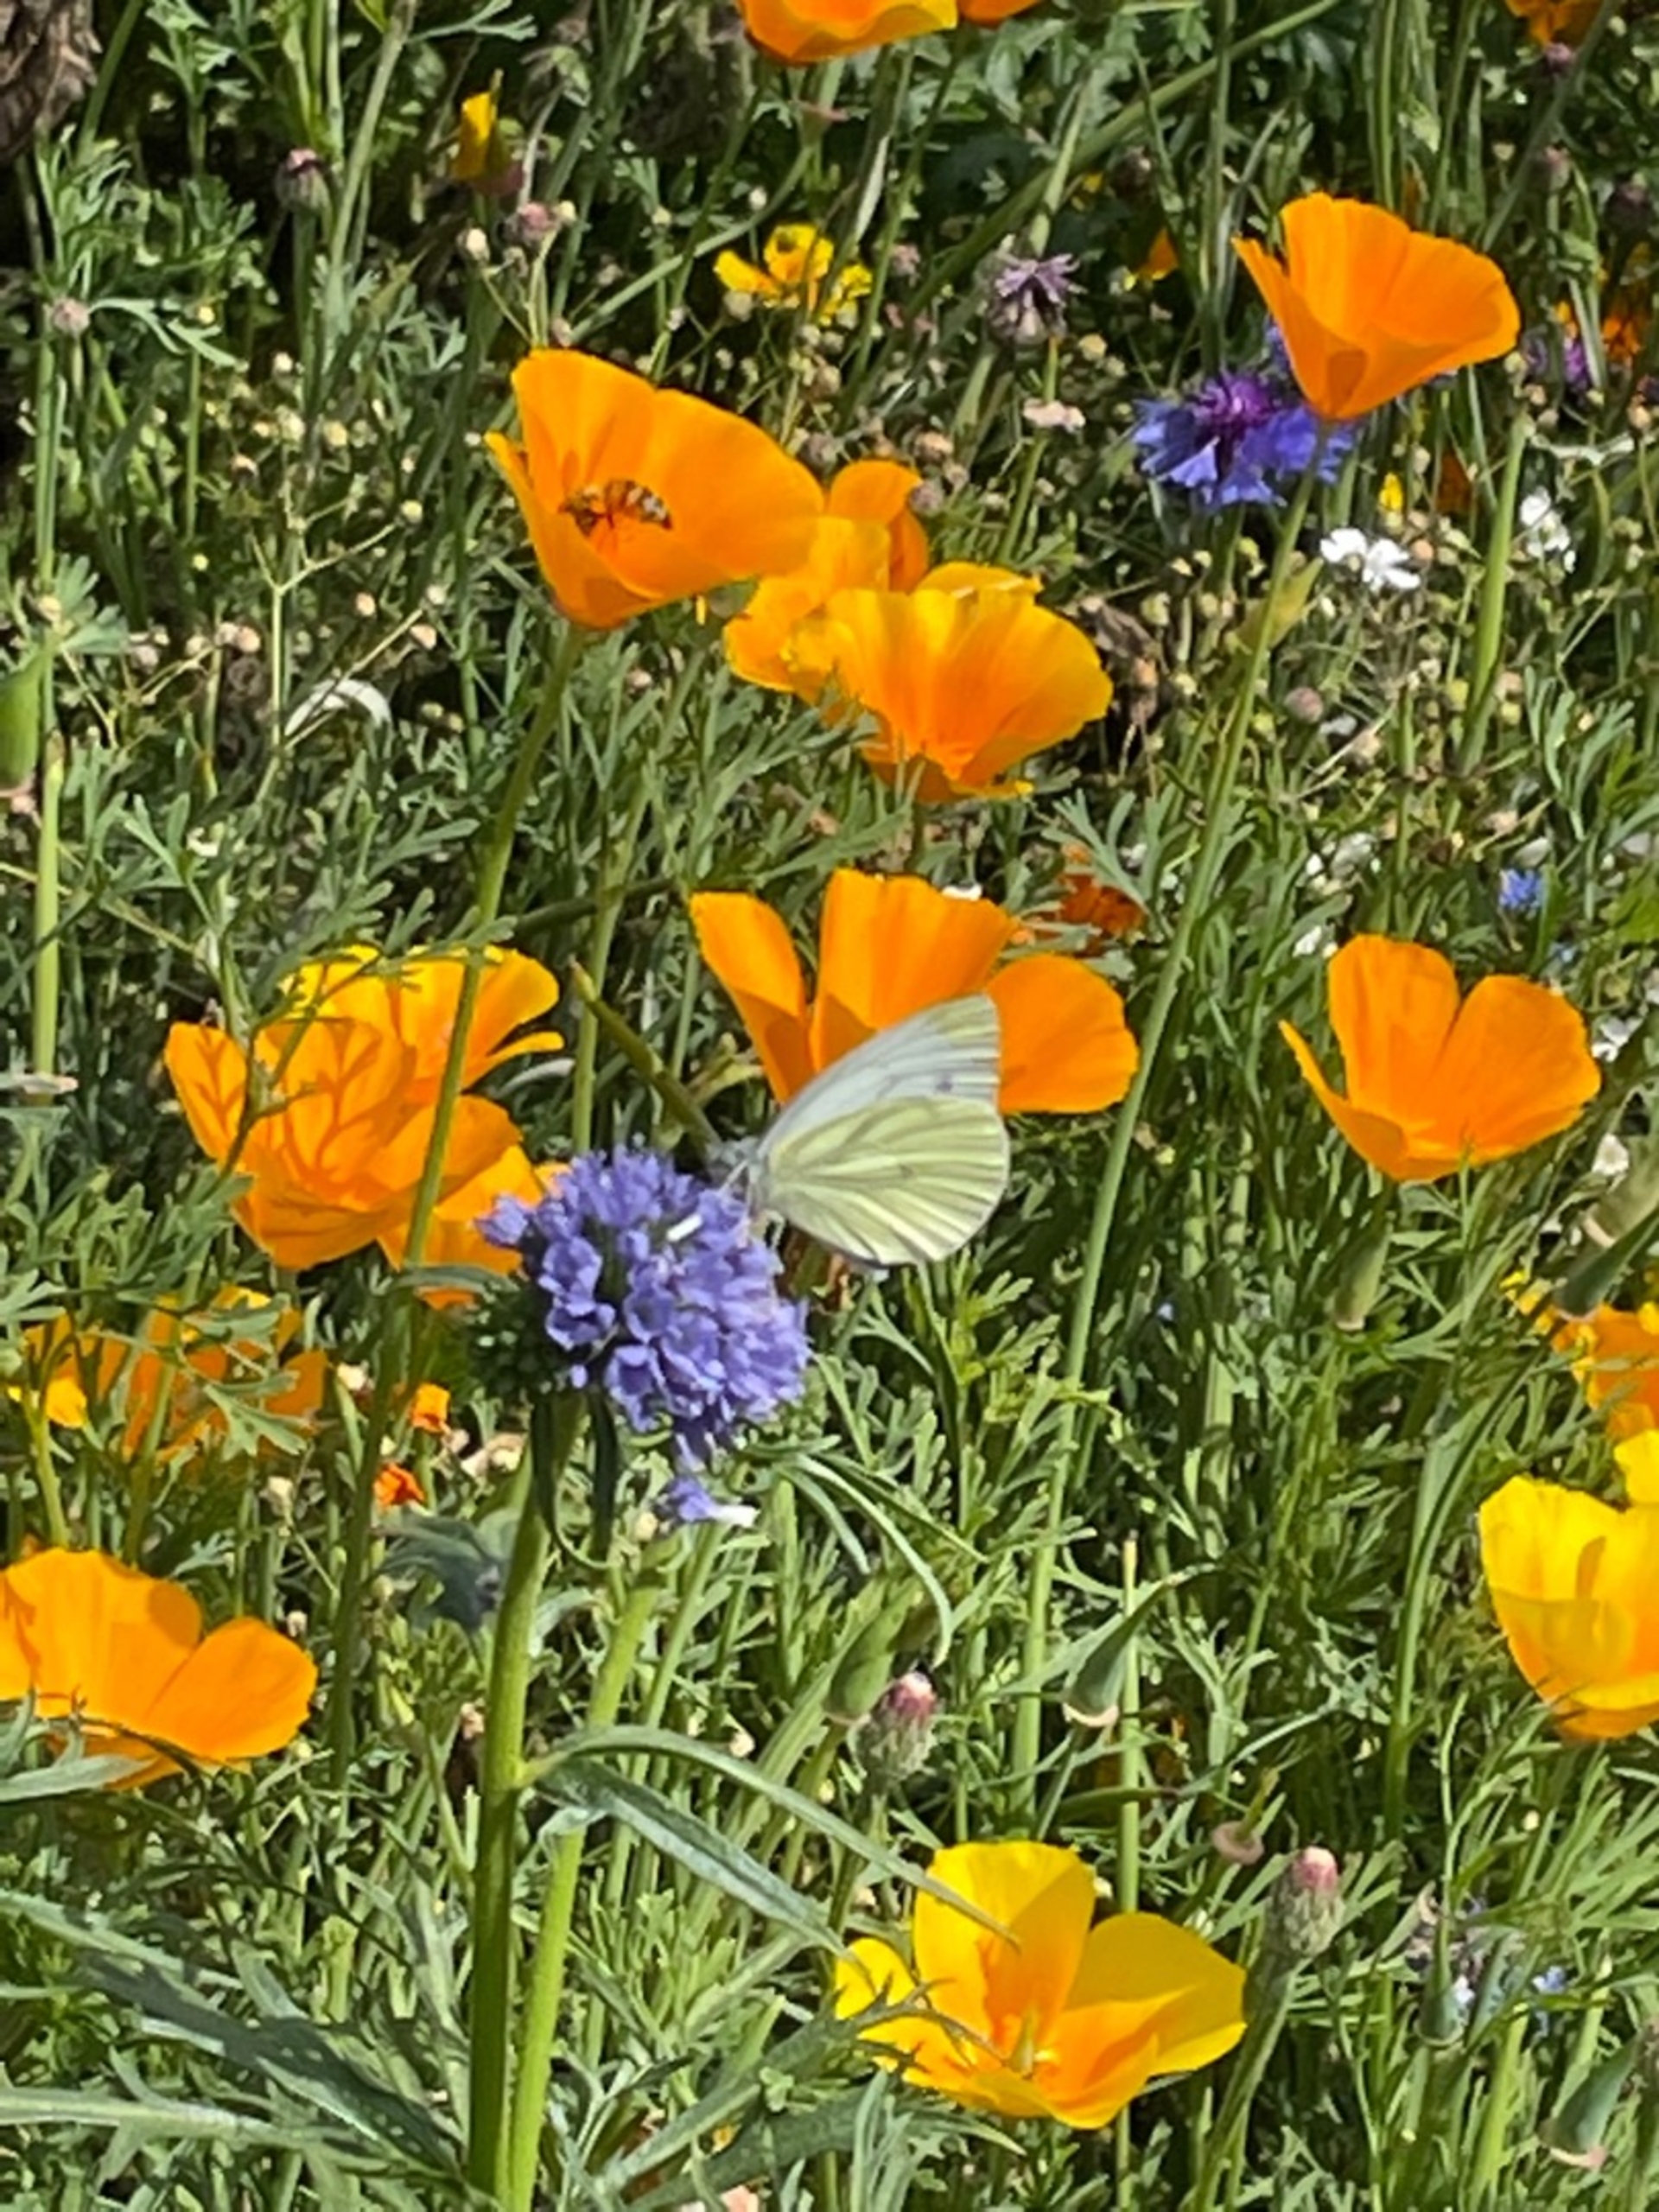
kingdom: Animalia
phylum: Arthropoda
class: Insecta
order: Lepidoptera
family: Pieridae
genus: Pieris
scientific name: Pieris napi
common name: Grønåret kålsommerfugl
